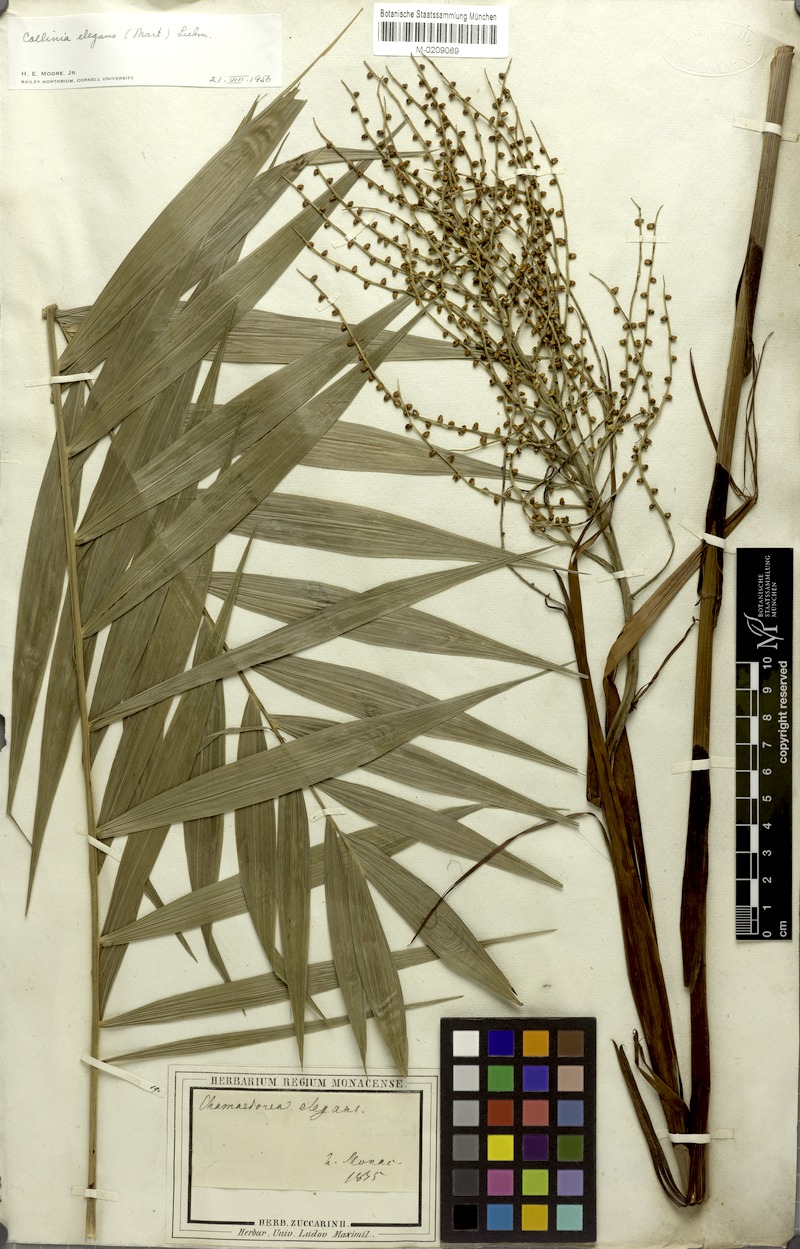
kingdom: Plantae
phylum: Tracheophyta
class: Liliopsida
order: Arecales
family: Arecaceae
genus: Chamaedorea
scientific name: Chamaedorea elegans
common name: Good-luck palm
